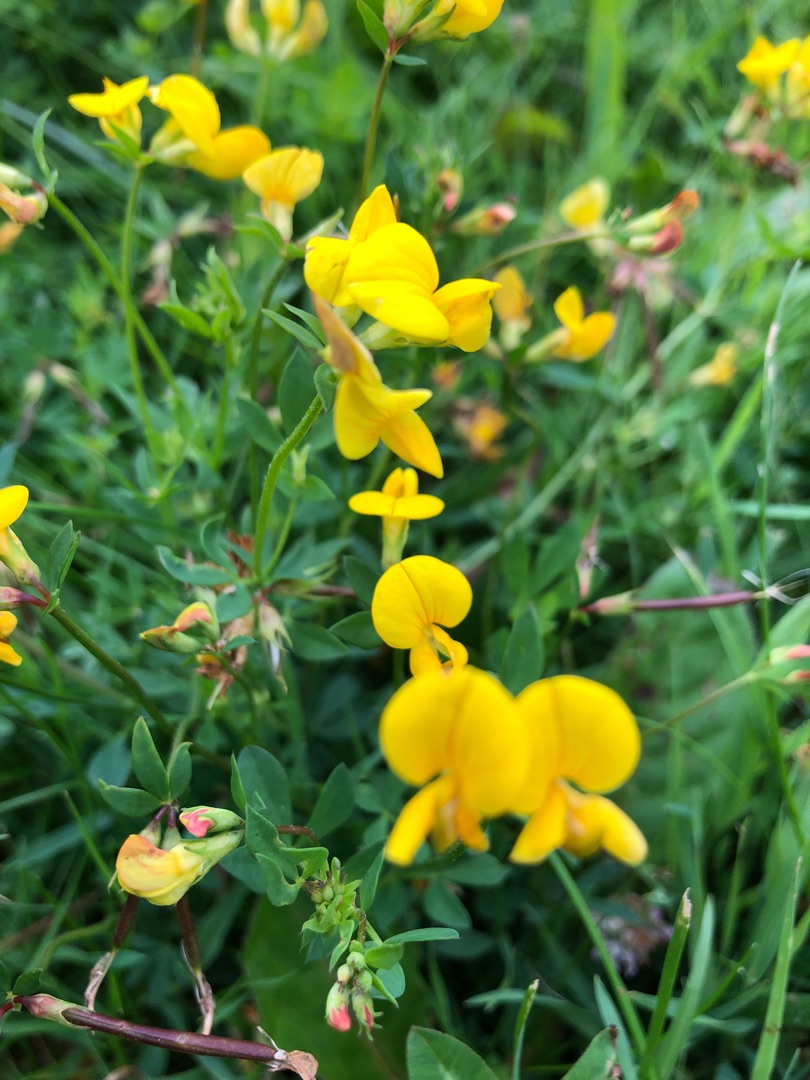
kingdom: Plantae
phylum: Tracheophyta
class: Magnoliopsida
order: Fabales
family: Fabaceae
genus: Lotus
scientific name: Lotus corniculatus
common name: Almindelig kællingetand
